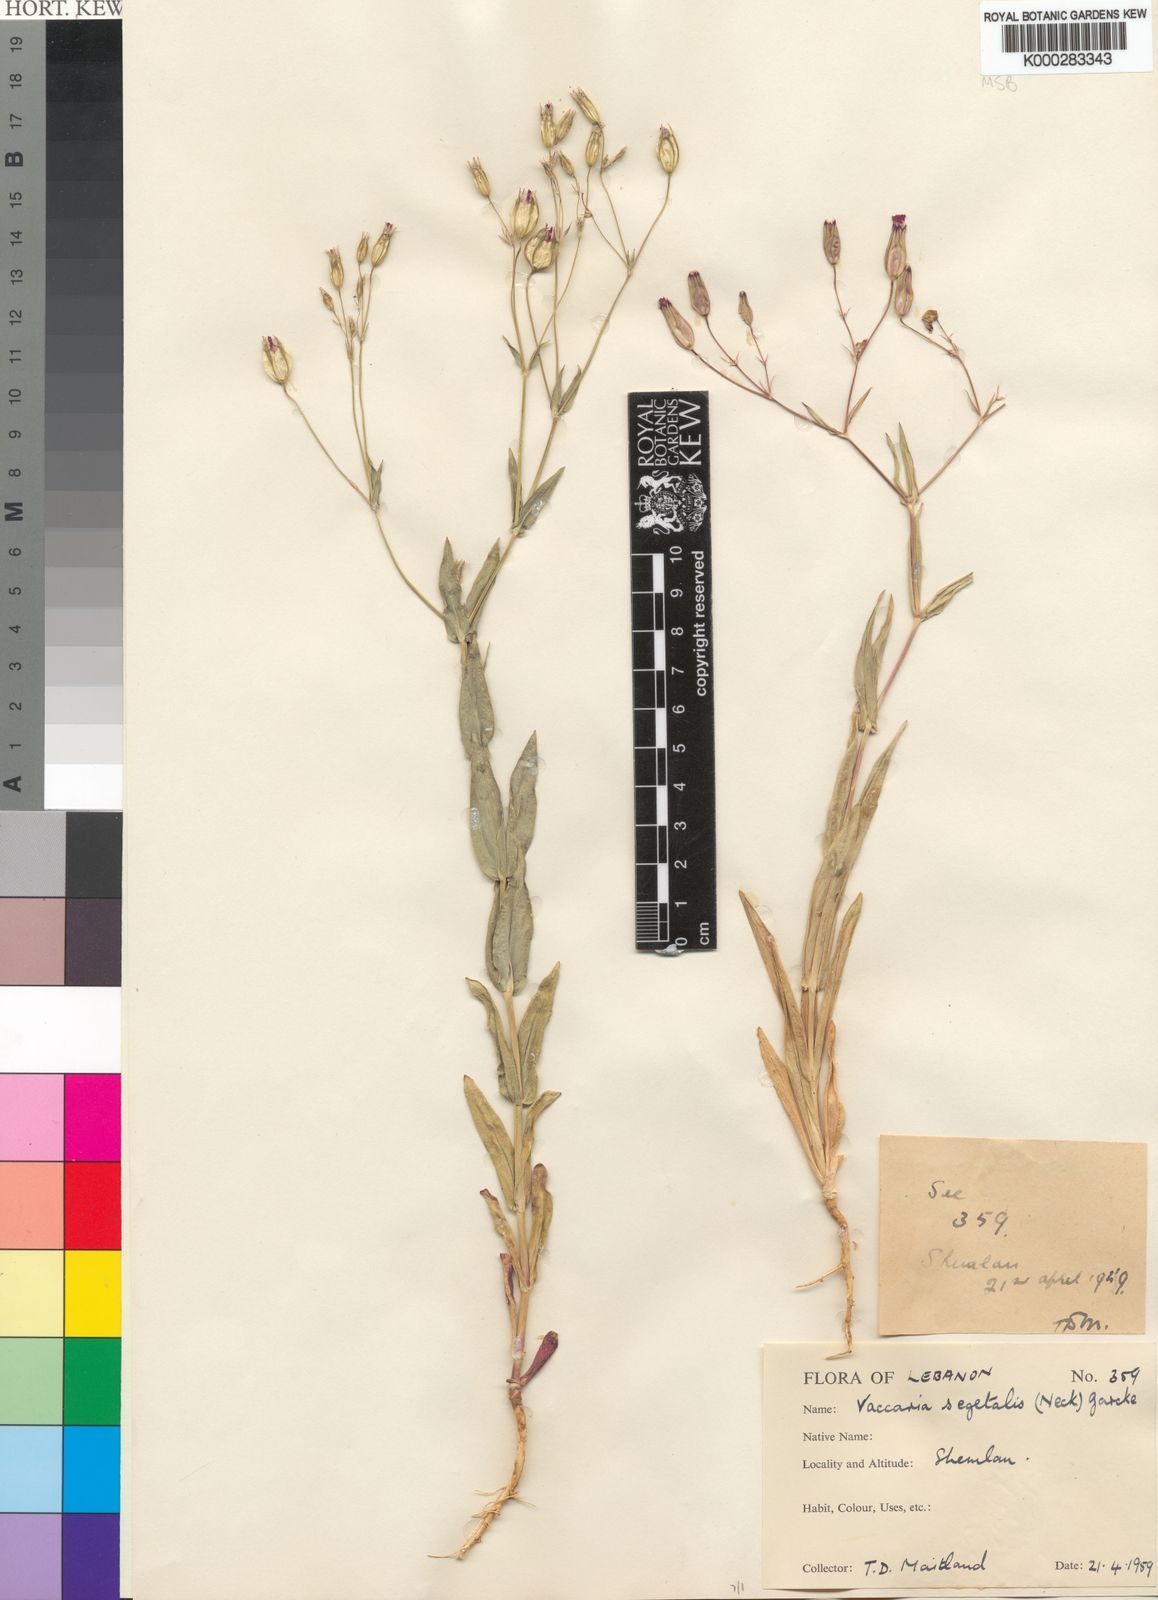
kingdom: Plantae
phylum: Tracheophyta
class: Magnoliopsida
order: Caryophyllales
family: Caryophyllaceae
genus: Gypsophila
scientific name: Gypsophila vaccaria
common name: Cow soapwort
